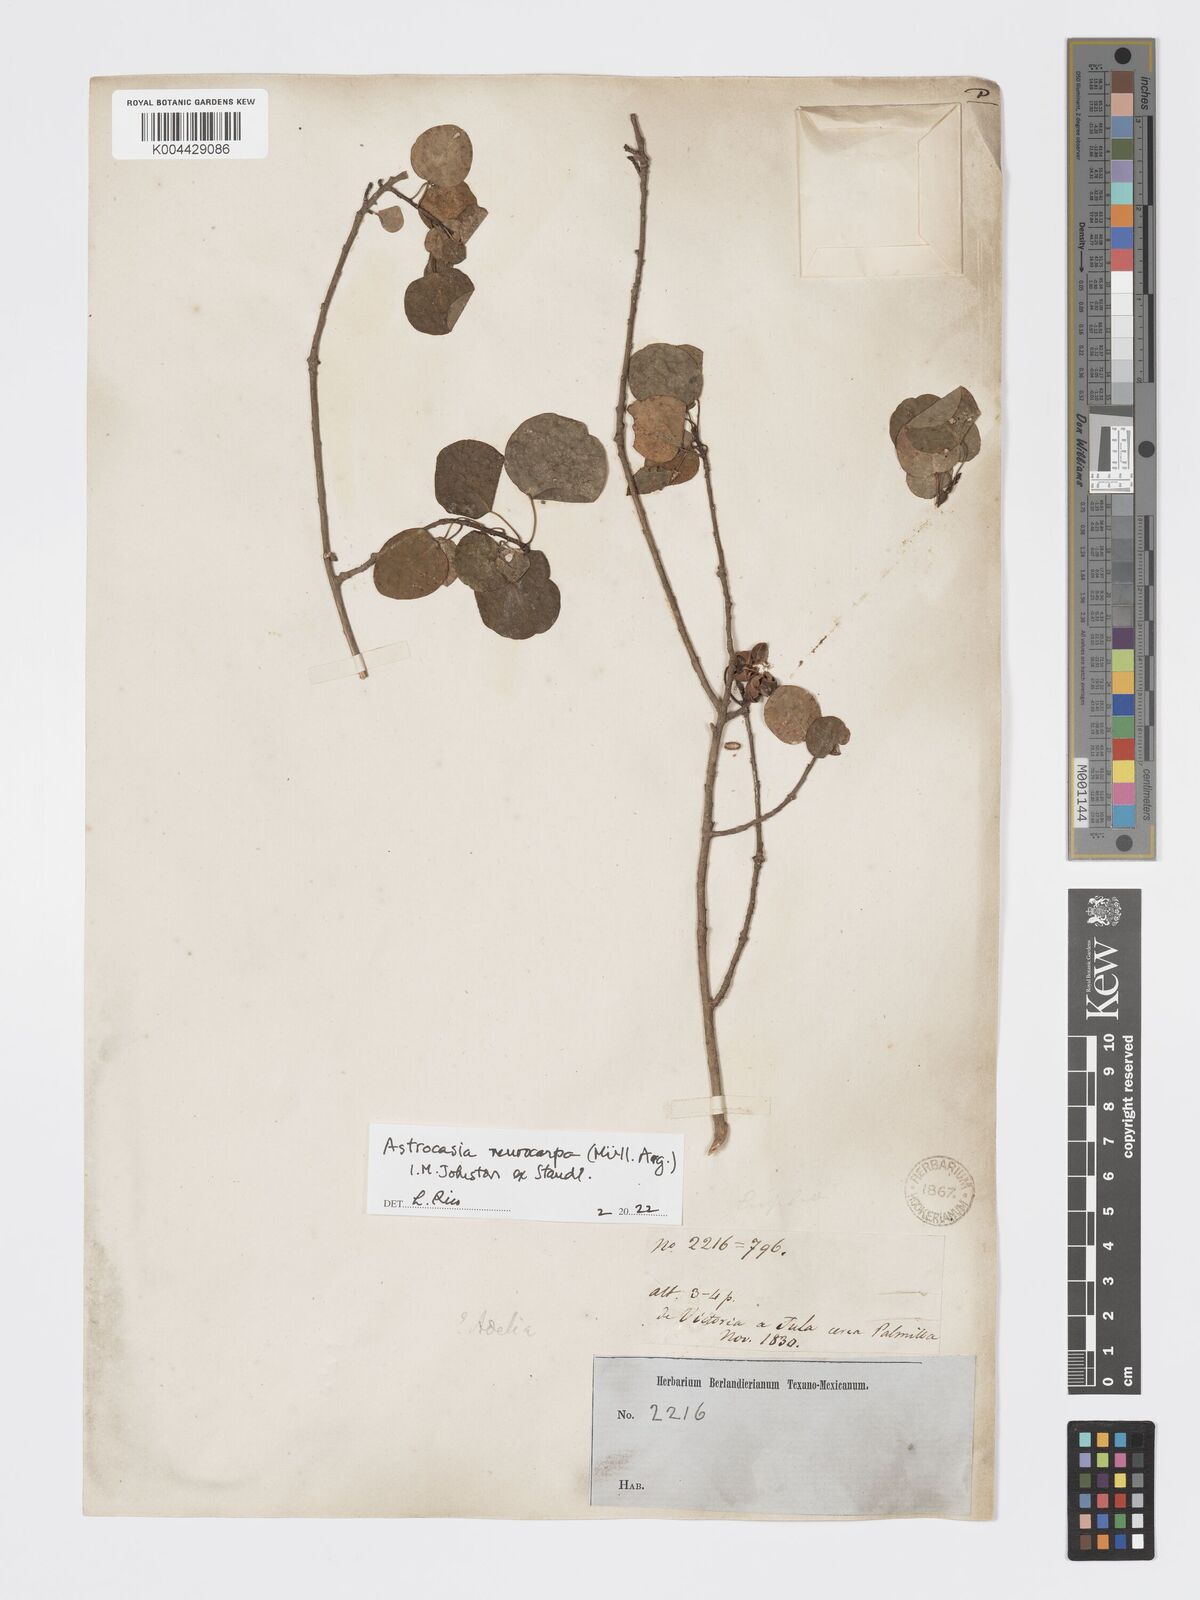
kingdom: Plantae
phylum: Tracheophyta
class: Magnoliopsida
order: Malpighiales
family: Phyllanthaceae
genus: Astrocasia
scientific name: Astrocasia neurocarpa
